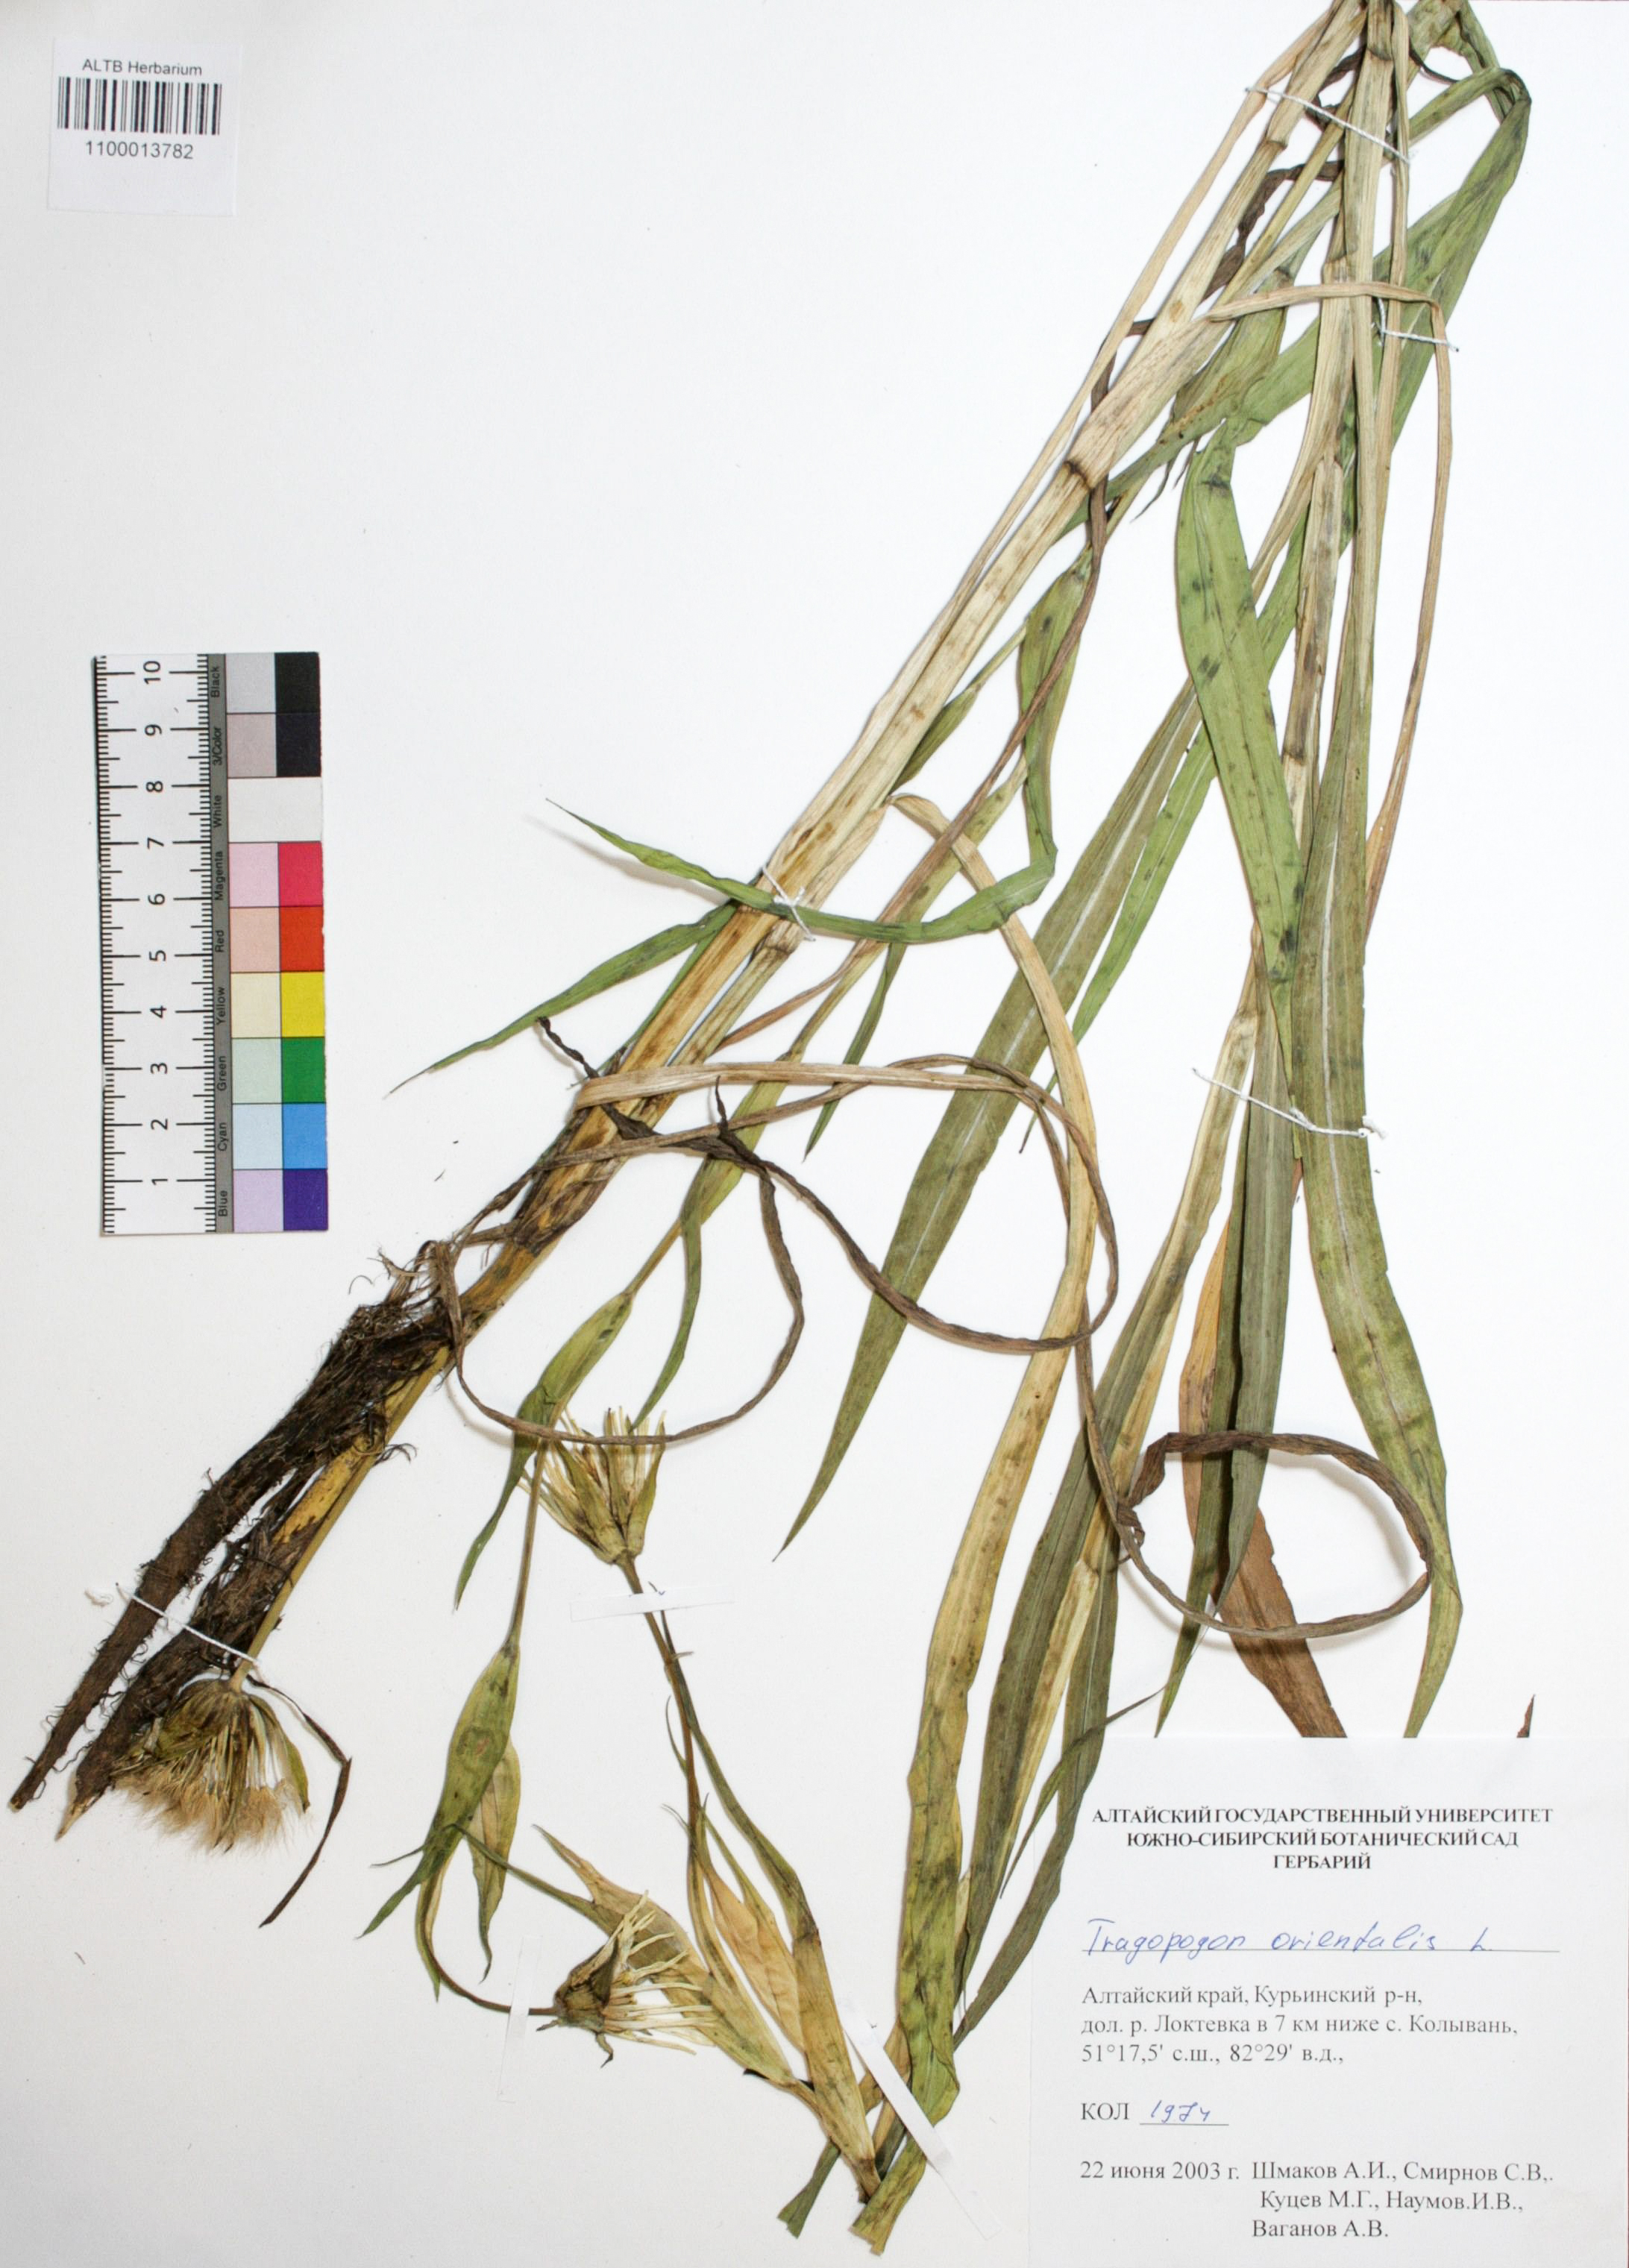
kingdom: Plantae
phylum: Tracheophyta
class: Magnoliopsida
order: Asterales
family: Asteraceae
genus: Tragopogon
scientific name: Tragopogon orientalis
